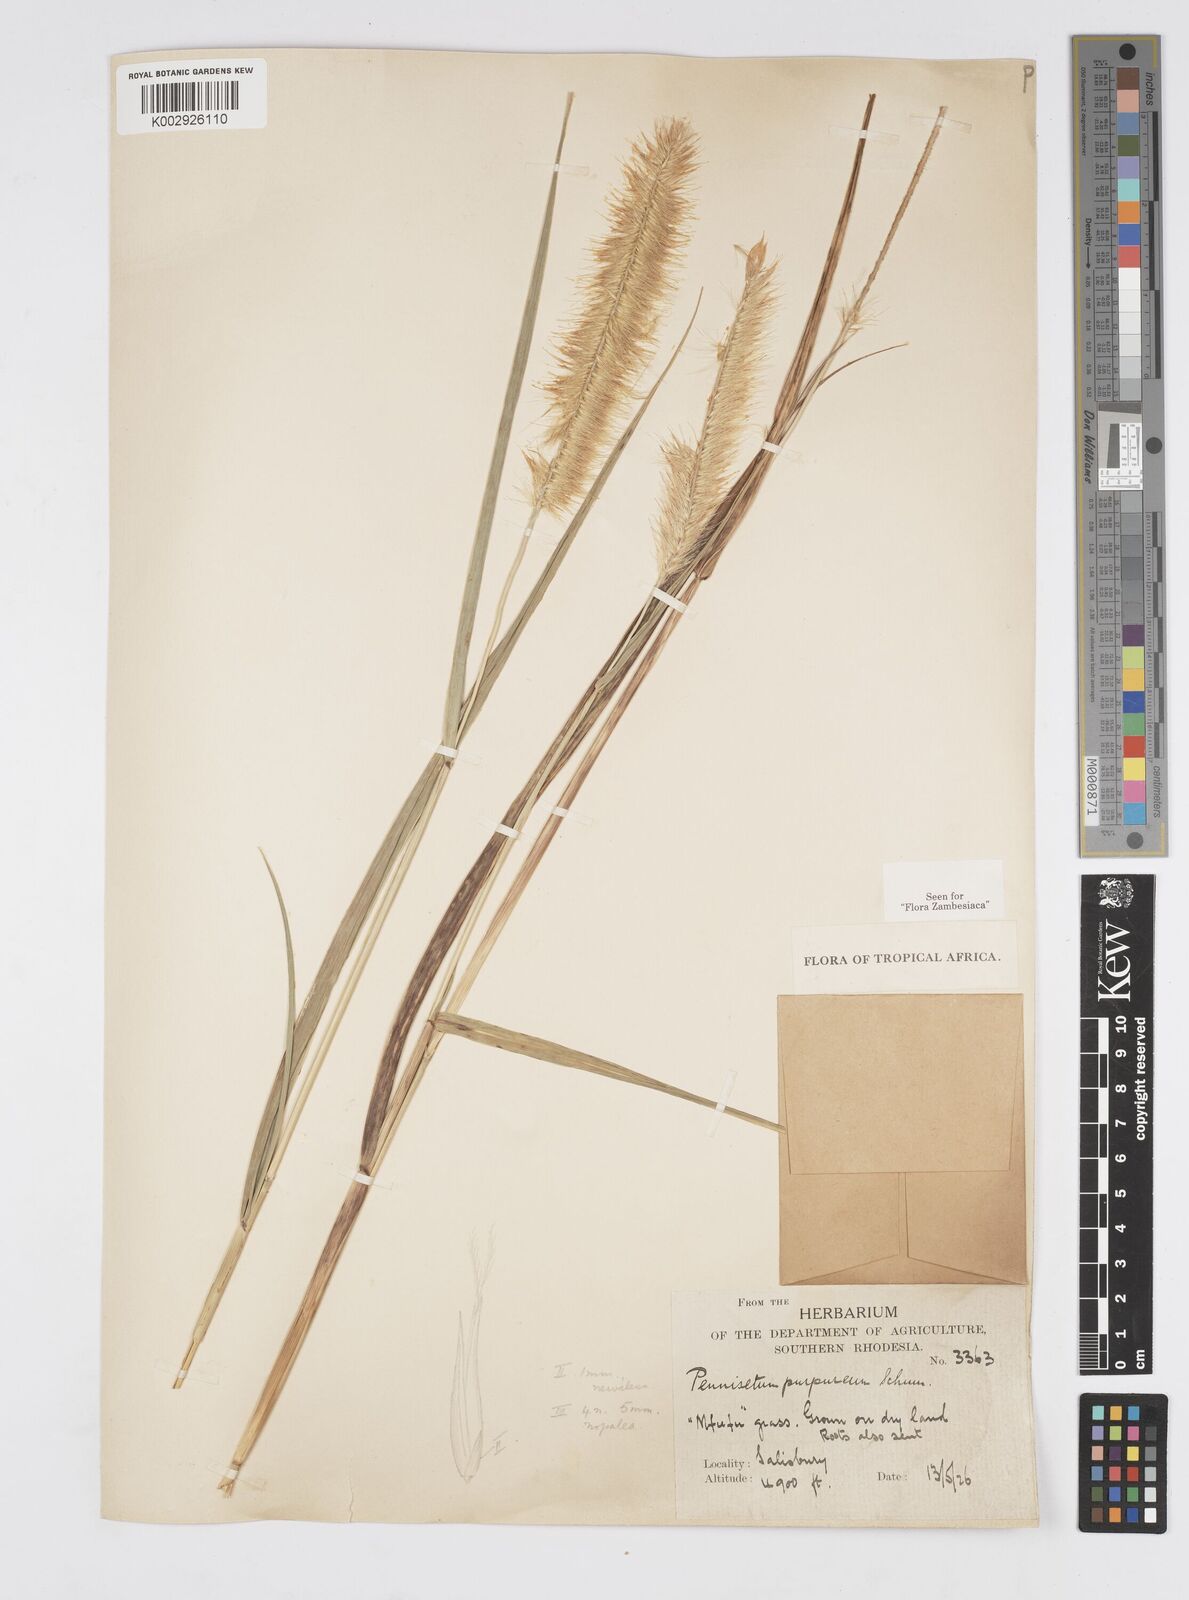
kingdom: Plantae
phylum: Tracheophyta
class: Liliopsida
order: Poales
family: Poaceae
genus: Cenchrus
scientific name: Cenchrus purpureus
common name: Elephant grass
